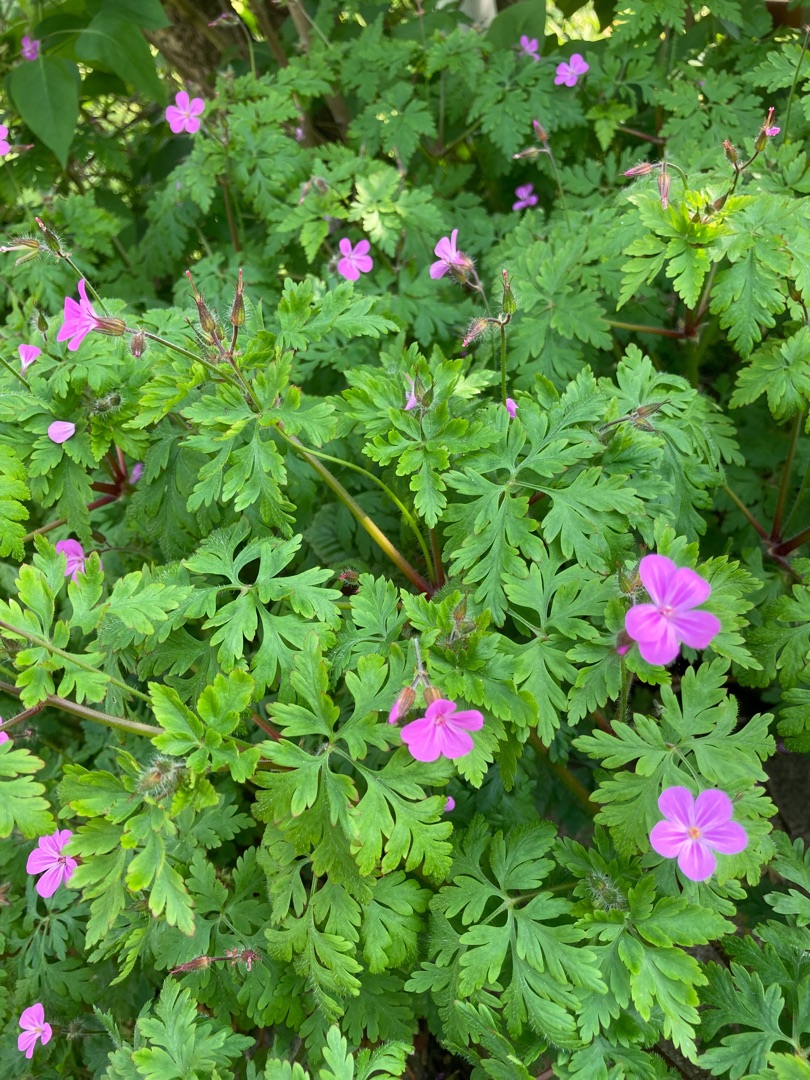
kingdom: Plantae
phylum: Tracheophyta
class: Magnoliopsida
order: Geraniales
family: Geraniaceae
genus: Geranium
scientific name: Geranium robertianum
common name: Stinkende storkenæb
